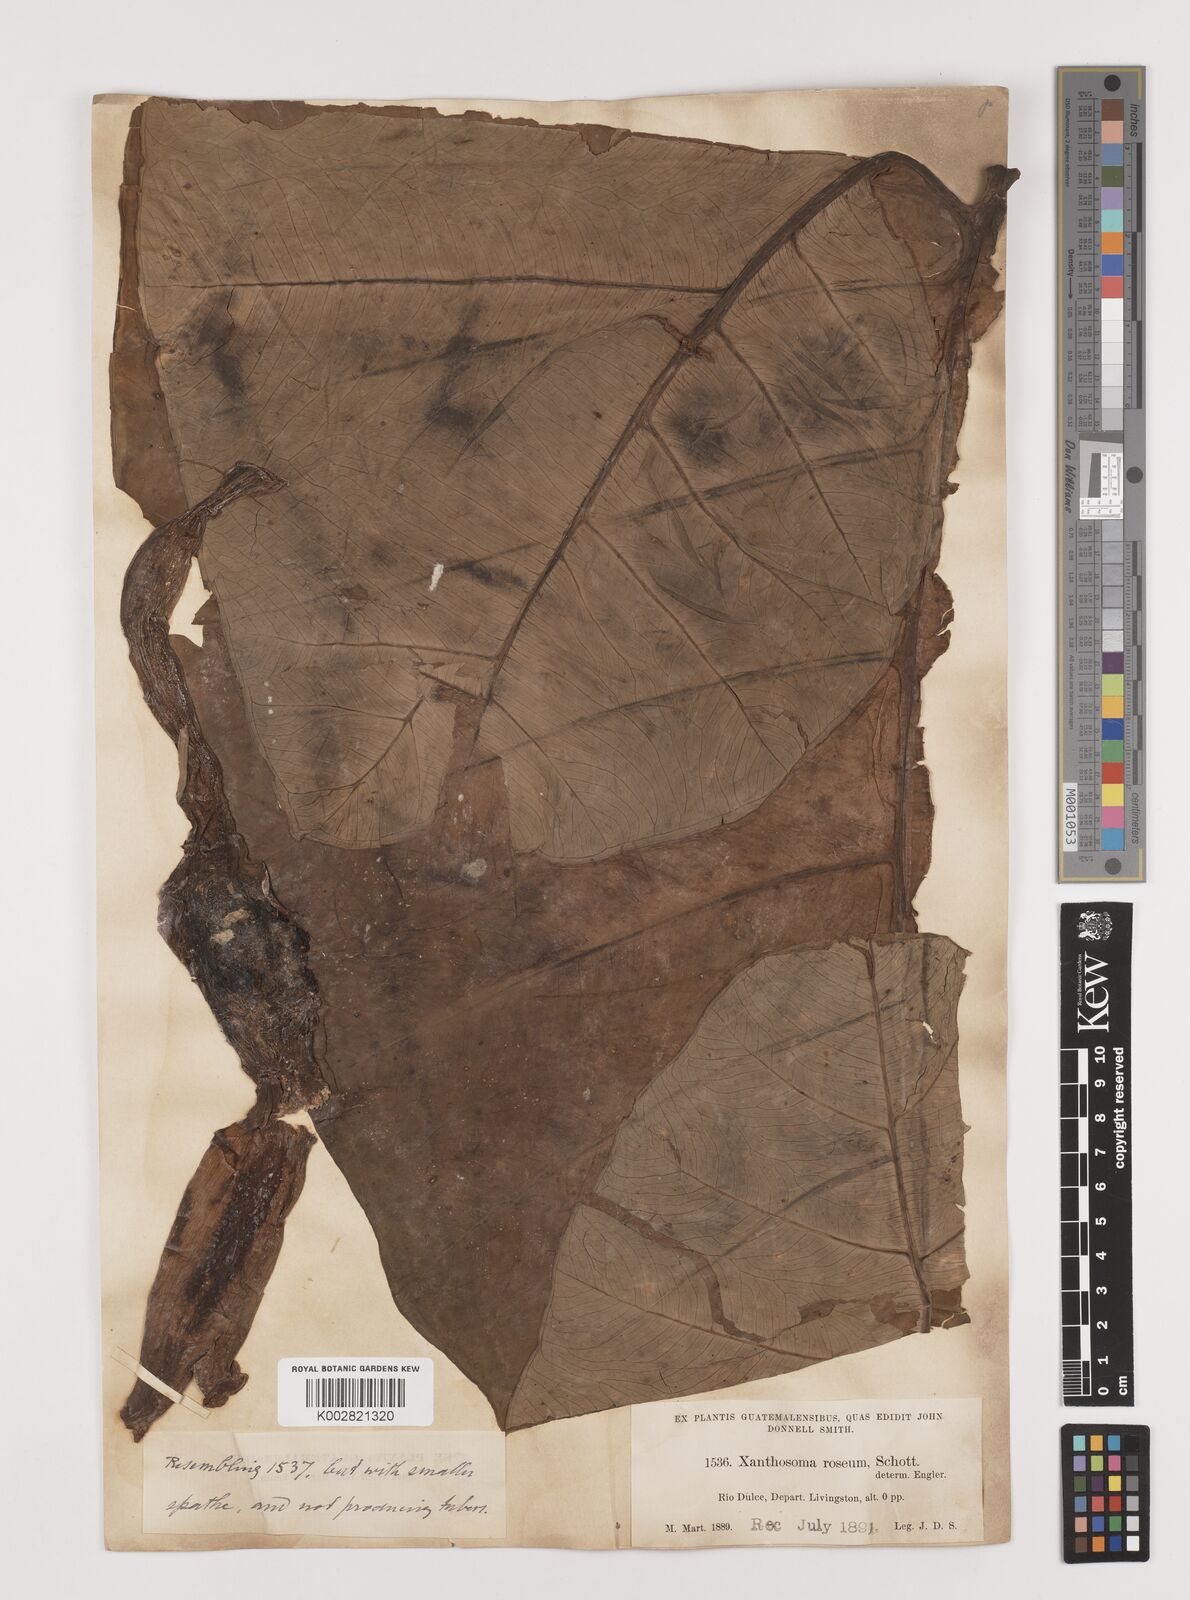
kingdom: Plantae
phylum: Tracheophyta
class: Liliopsida
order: Alismatales
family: Araceae
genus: Xanthosoma
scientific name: Xanthosoma sagittifolium
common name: Arrowleaf elephant's ear
